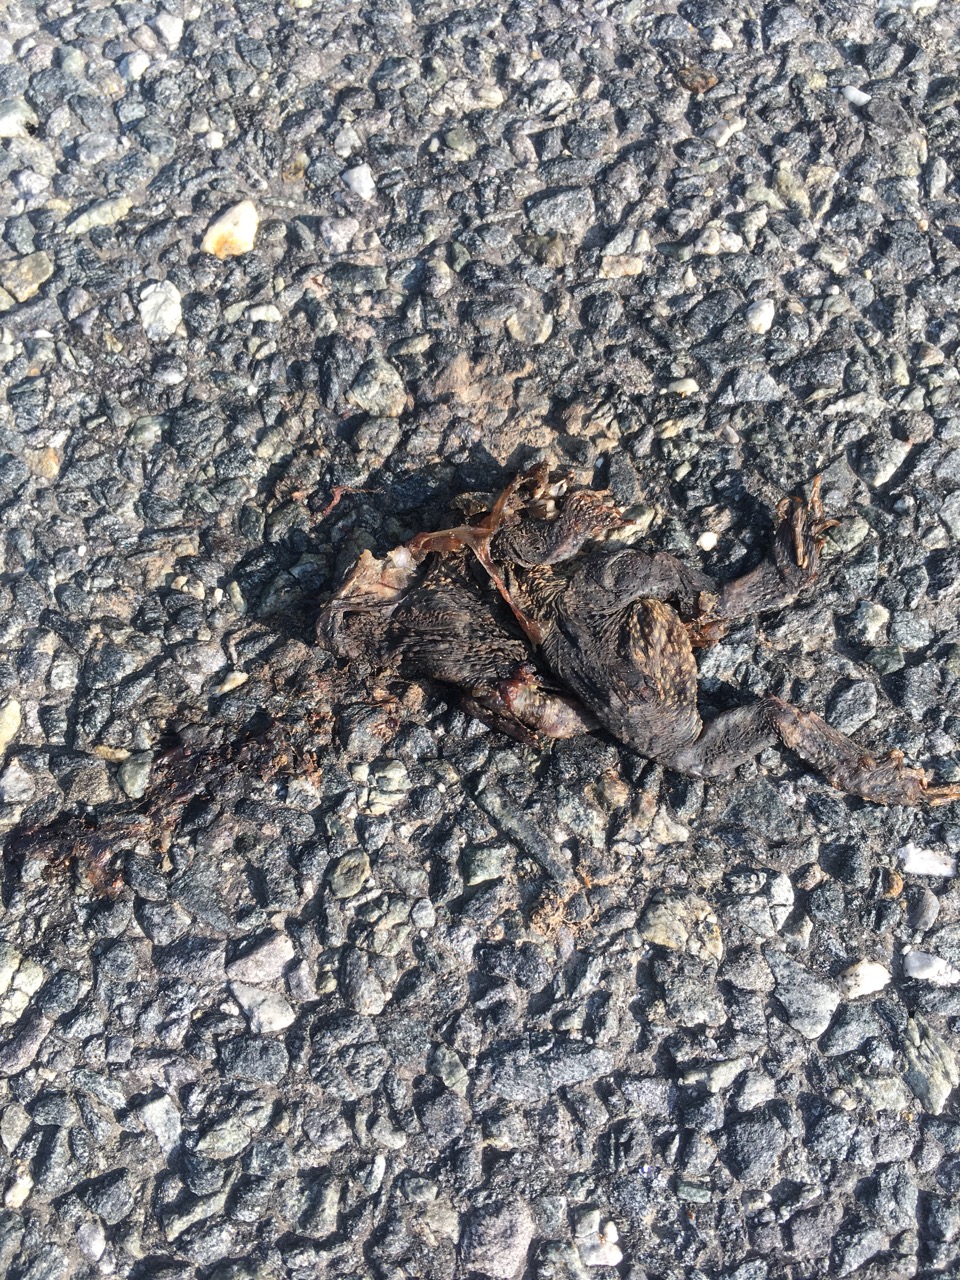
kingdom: Animalia
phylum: Chordata
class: Amphibia
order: Anura
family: Bufonidae
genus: Bufo
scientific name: Bufo bufo
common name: Common toad
